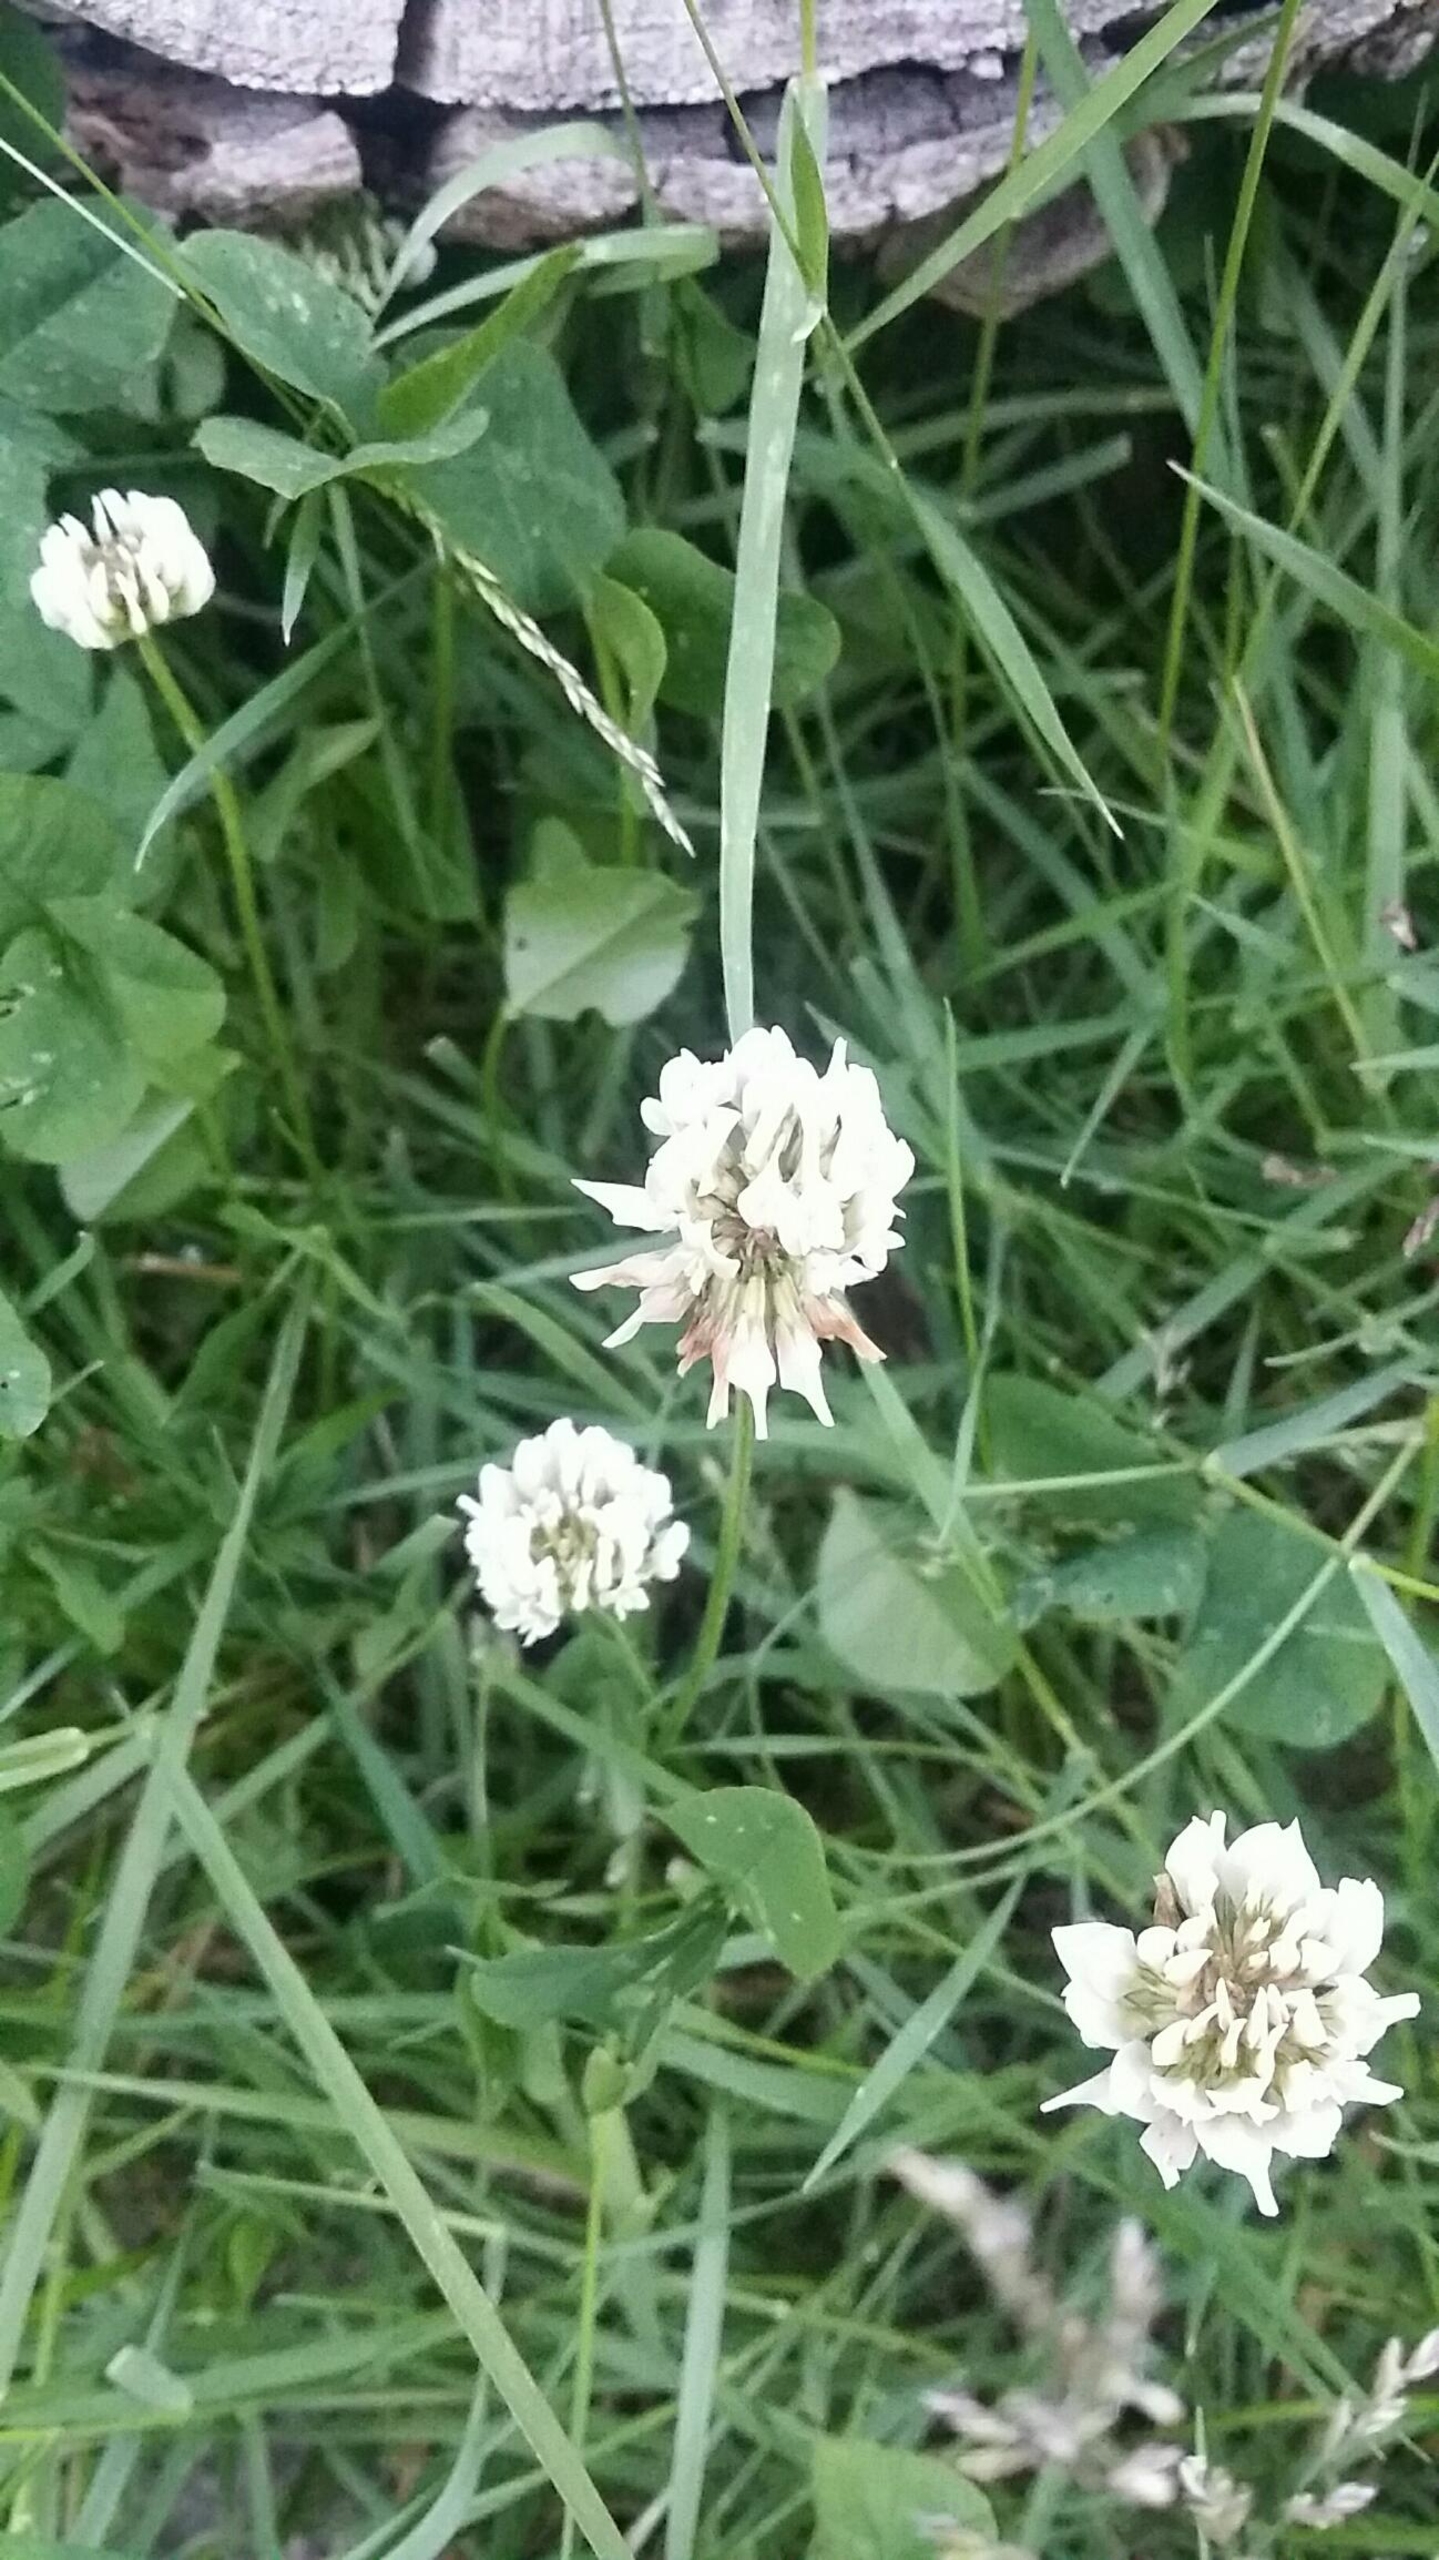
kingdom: Plantae
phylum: Tracheophyta
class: Magnoliopsida
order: Fabales
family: Fabaceae
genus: Trifolium
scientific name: Trifolium repens
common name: Hvid-kløver
